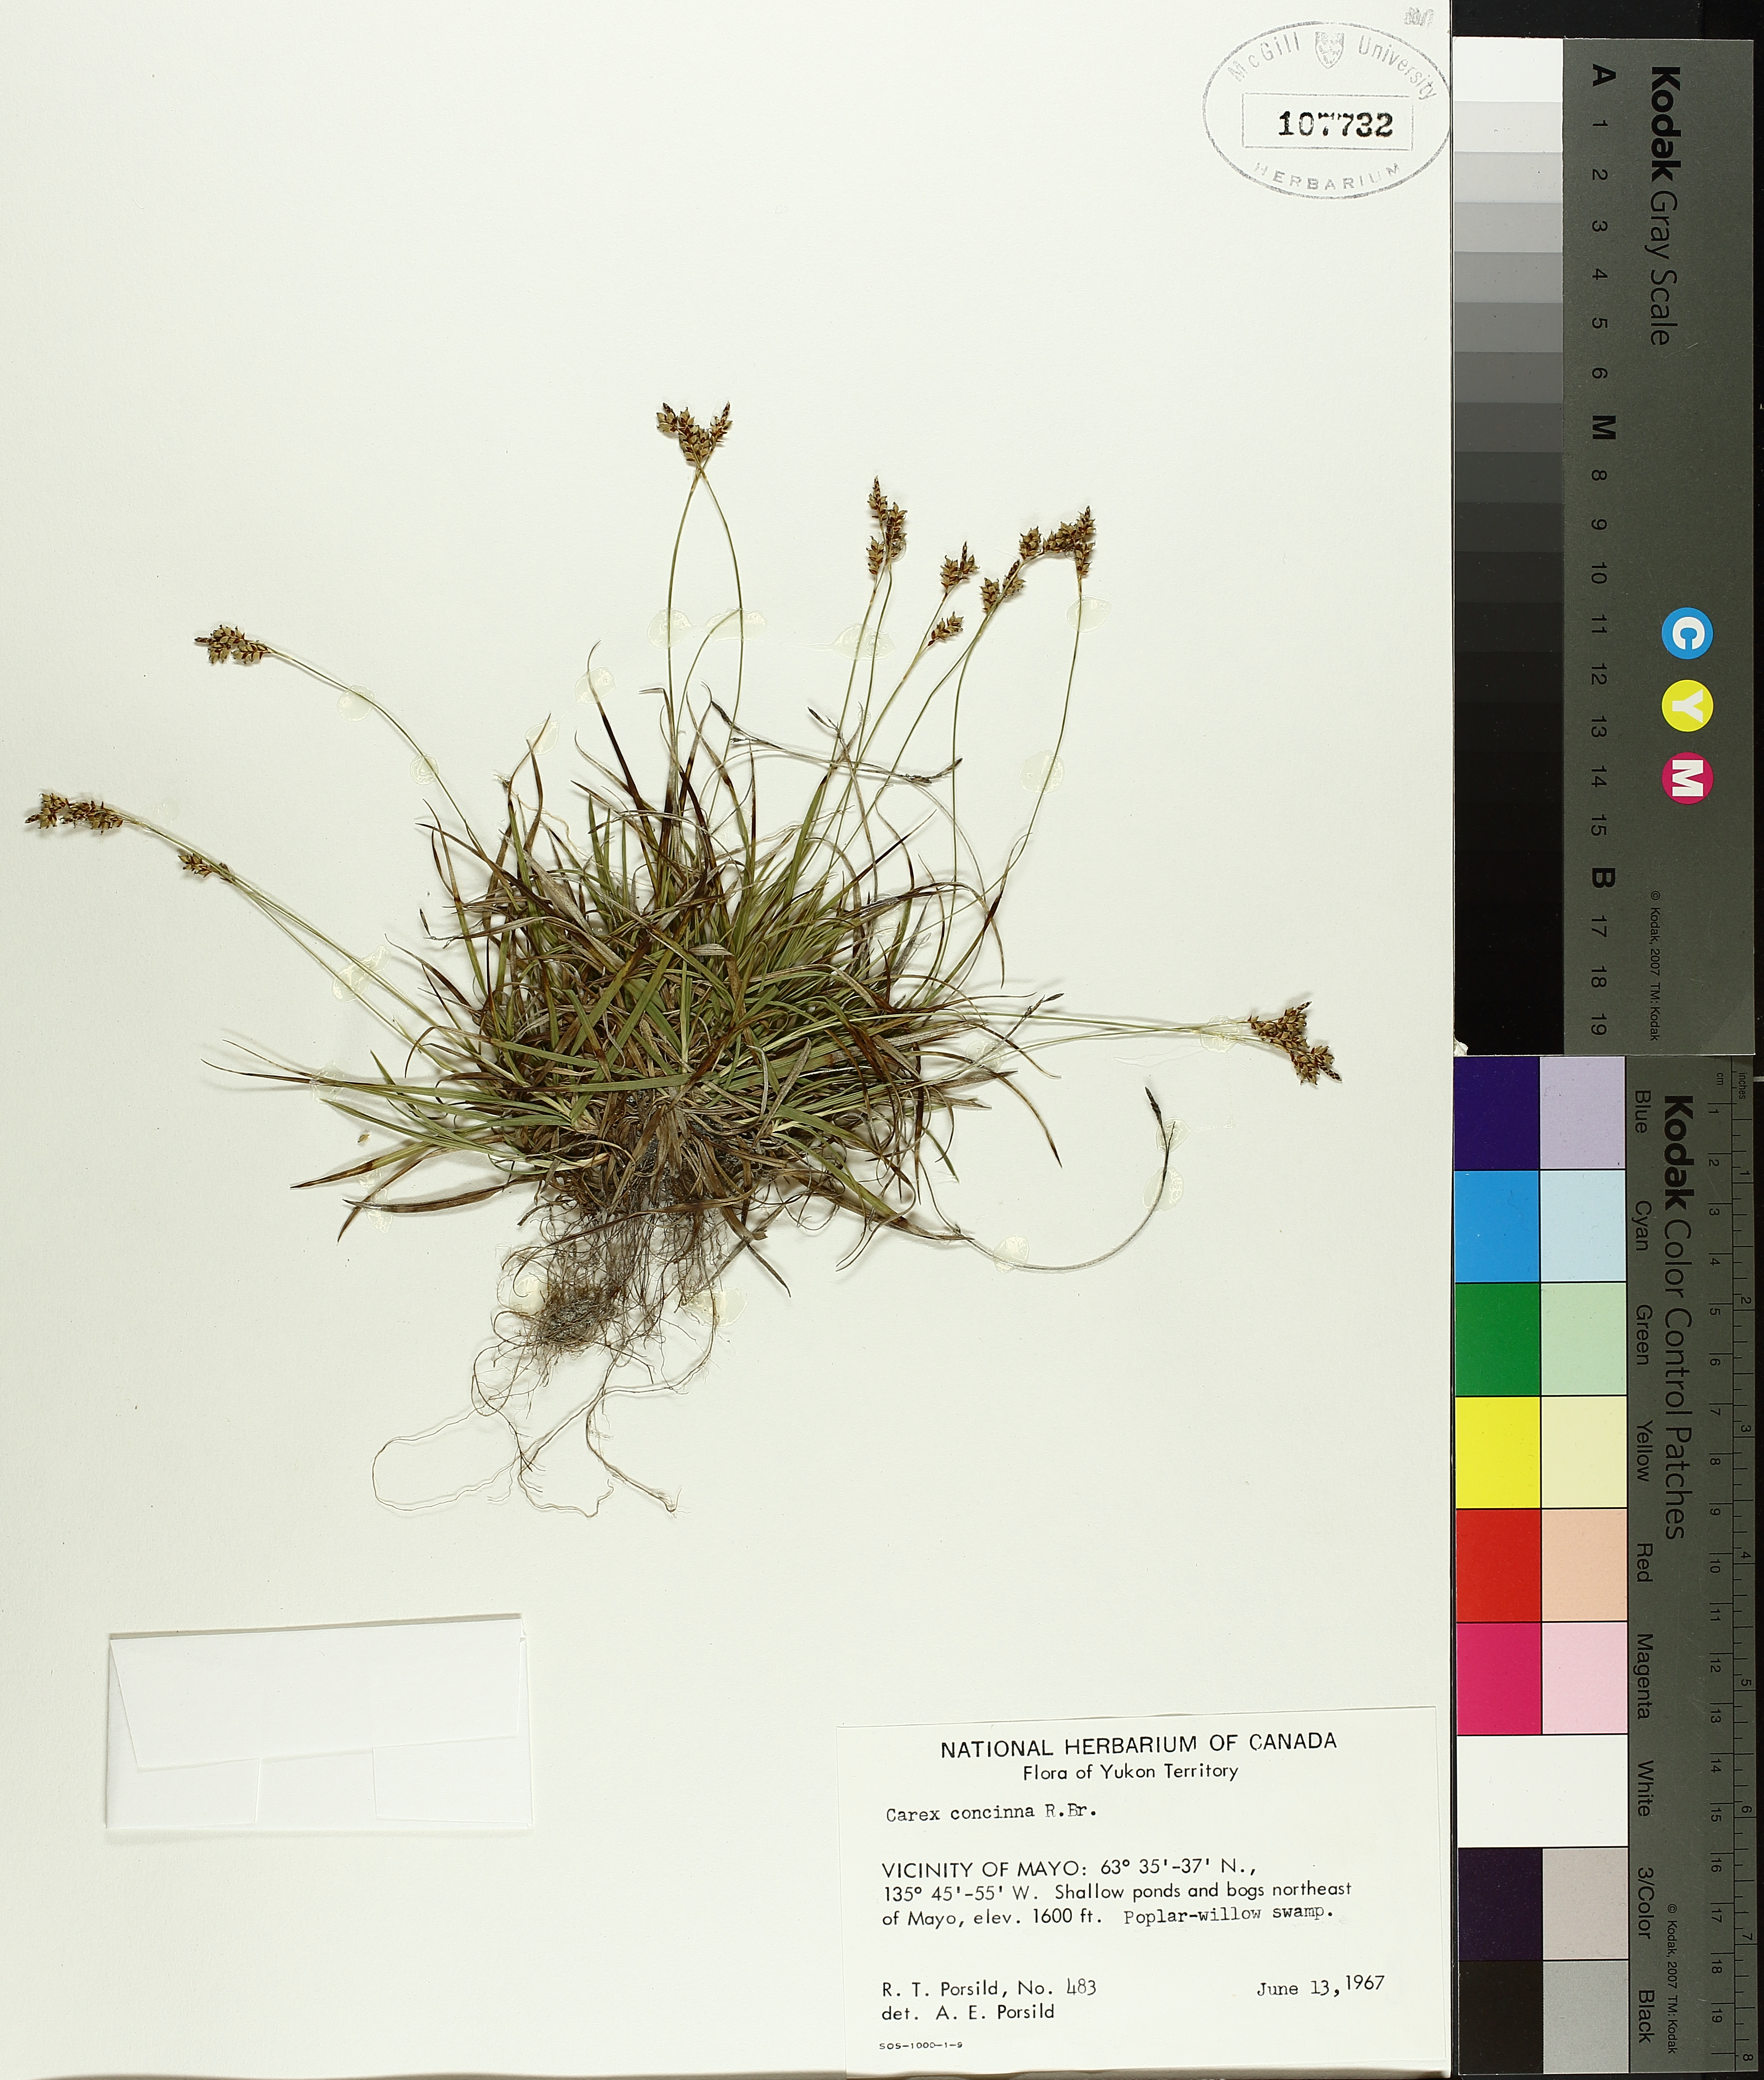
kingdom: Plantae
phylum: Tracheophyta
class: Liliopsida
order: Poales
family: Cyperaceae
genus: Carex
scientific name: Carex concinna
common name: Beautiful sedge
